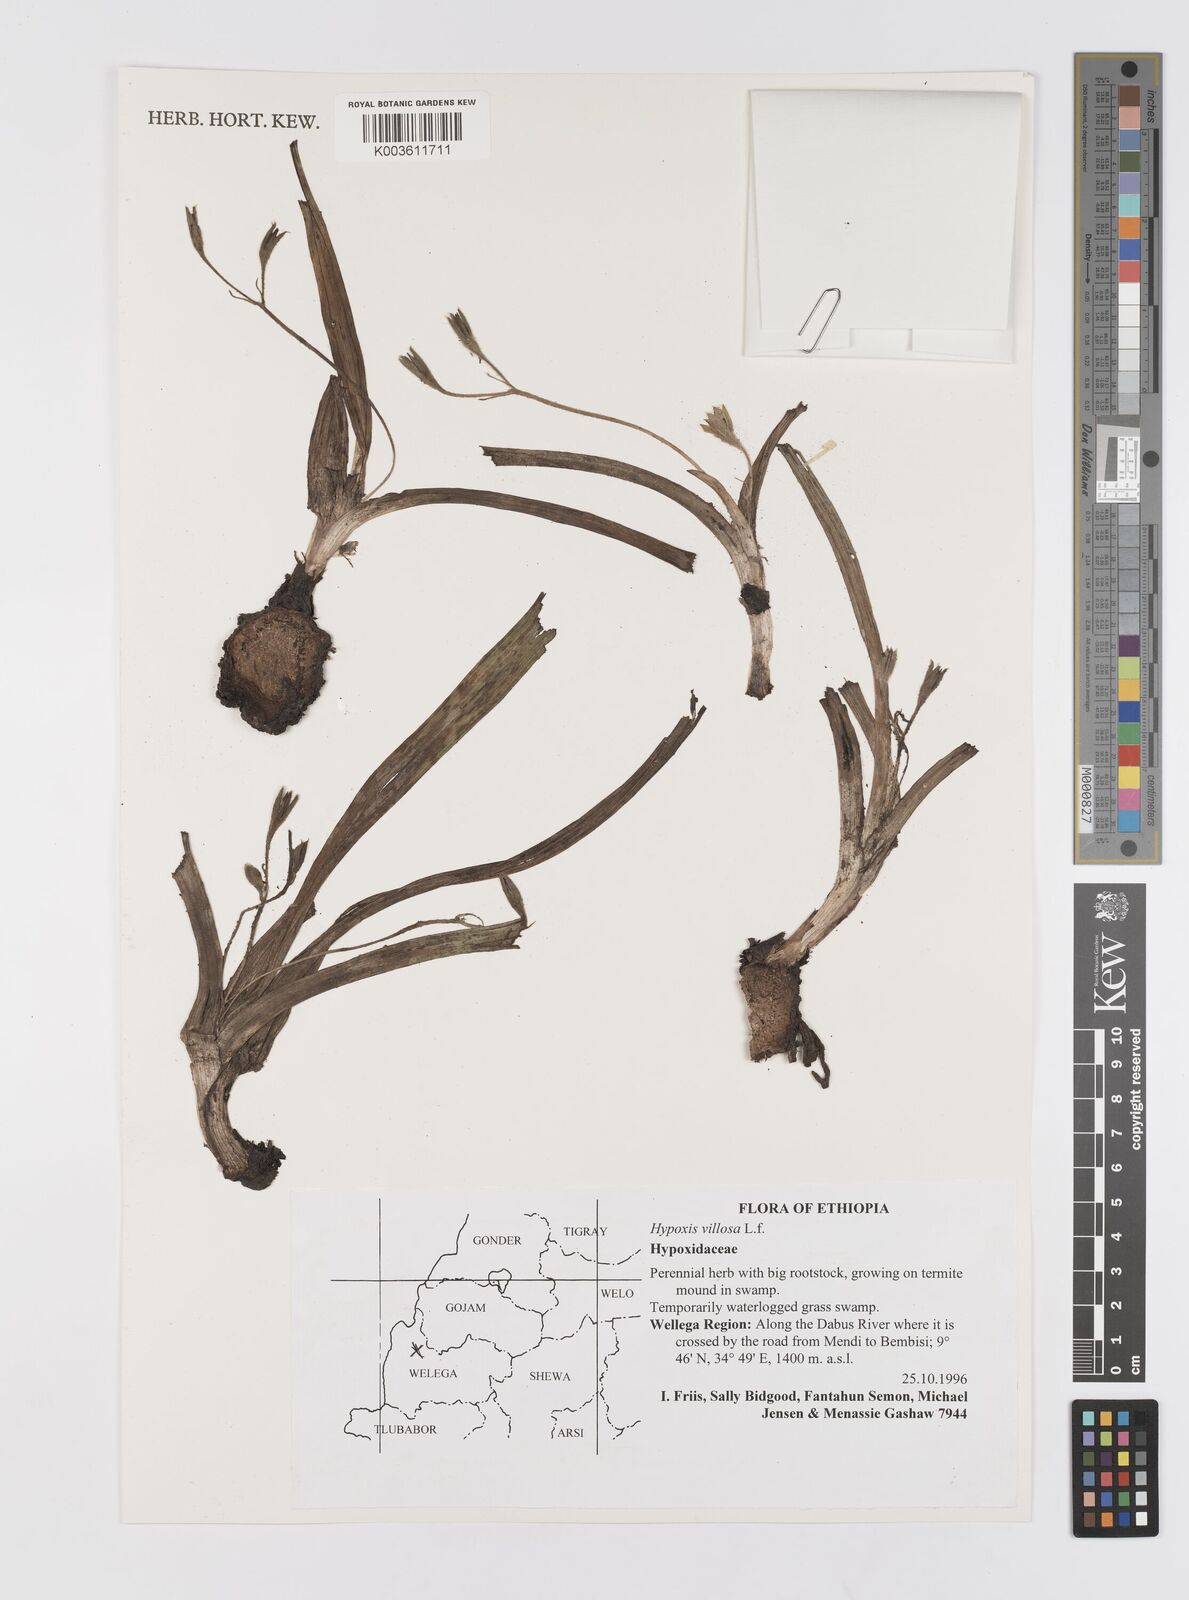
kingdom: Plantae
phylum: Tracheophyta
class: Liliopsida
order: Asparagales
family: Hypoxidaceae
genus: Hypoxis
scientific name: Hypoxis villosa
